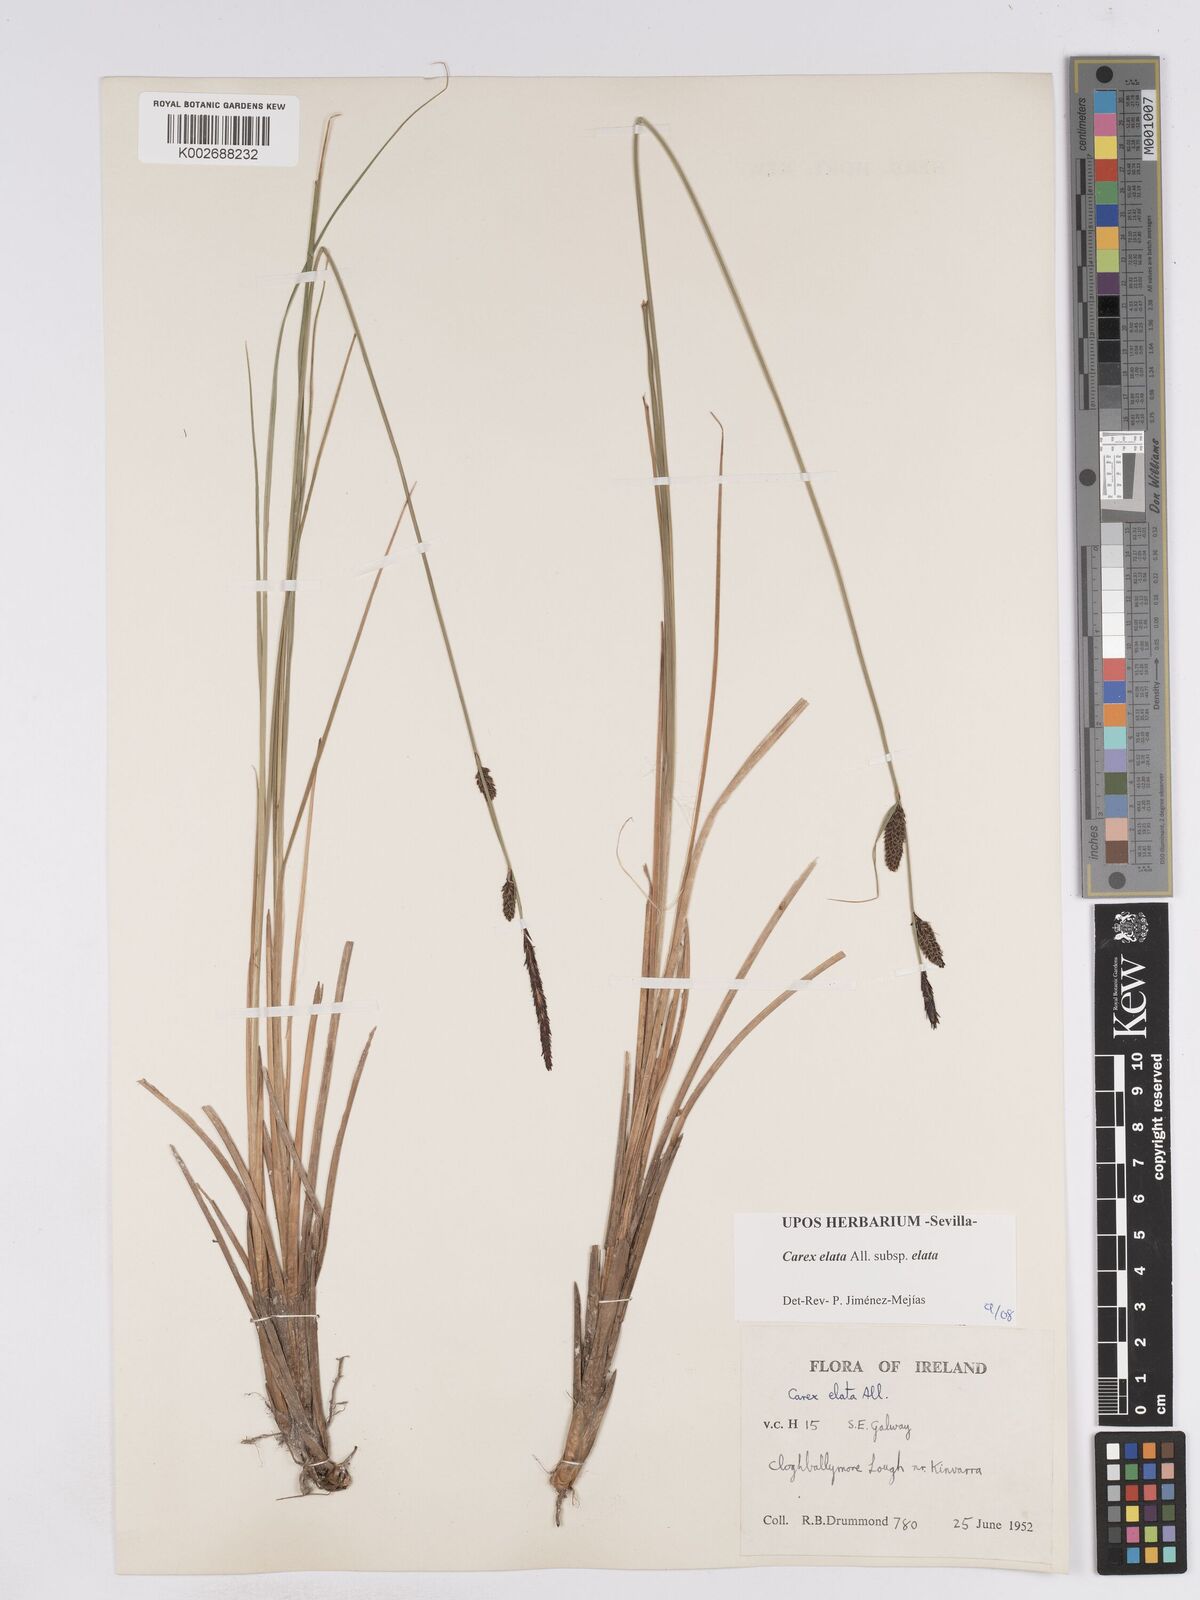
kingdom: Plantae
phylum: Tracheophyta
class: Liliopsida
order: Poales
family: Cyperaceae
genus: Carex
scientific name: Carex elata
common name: Tufted sedge
